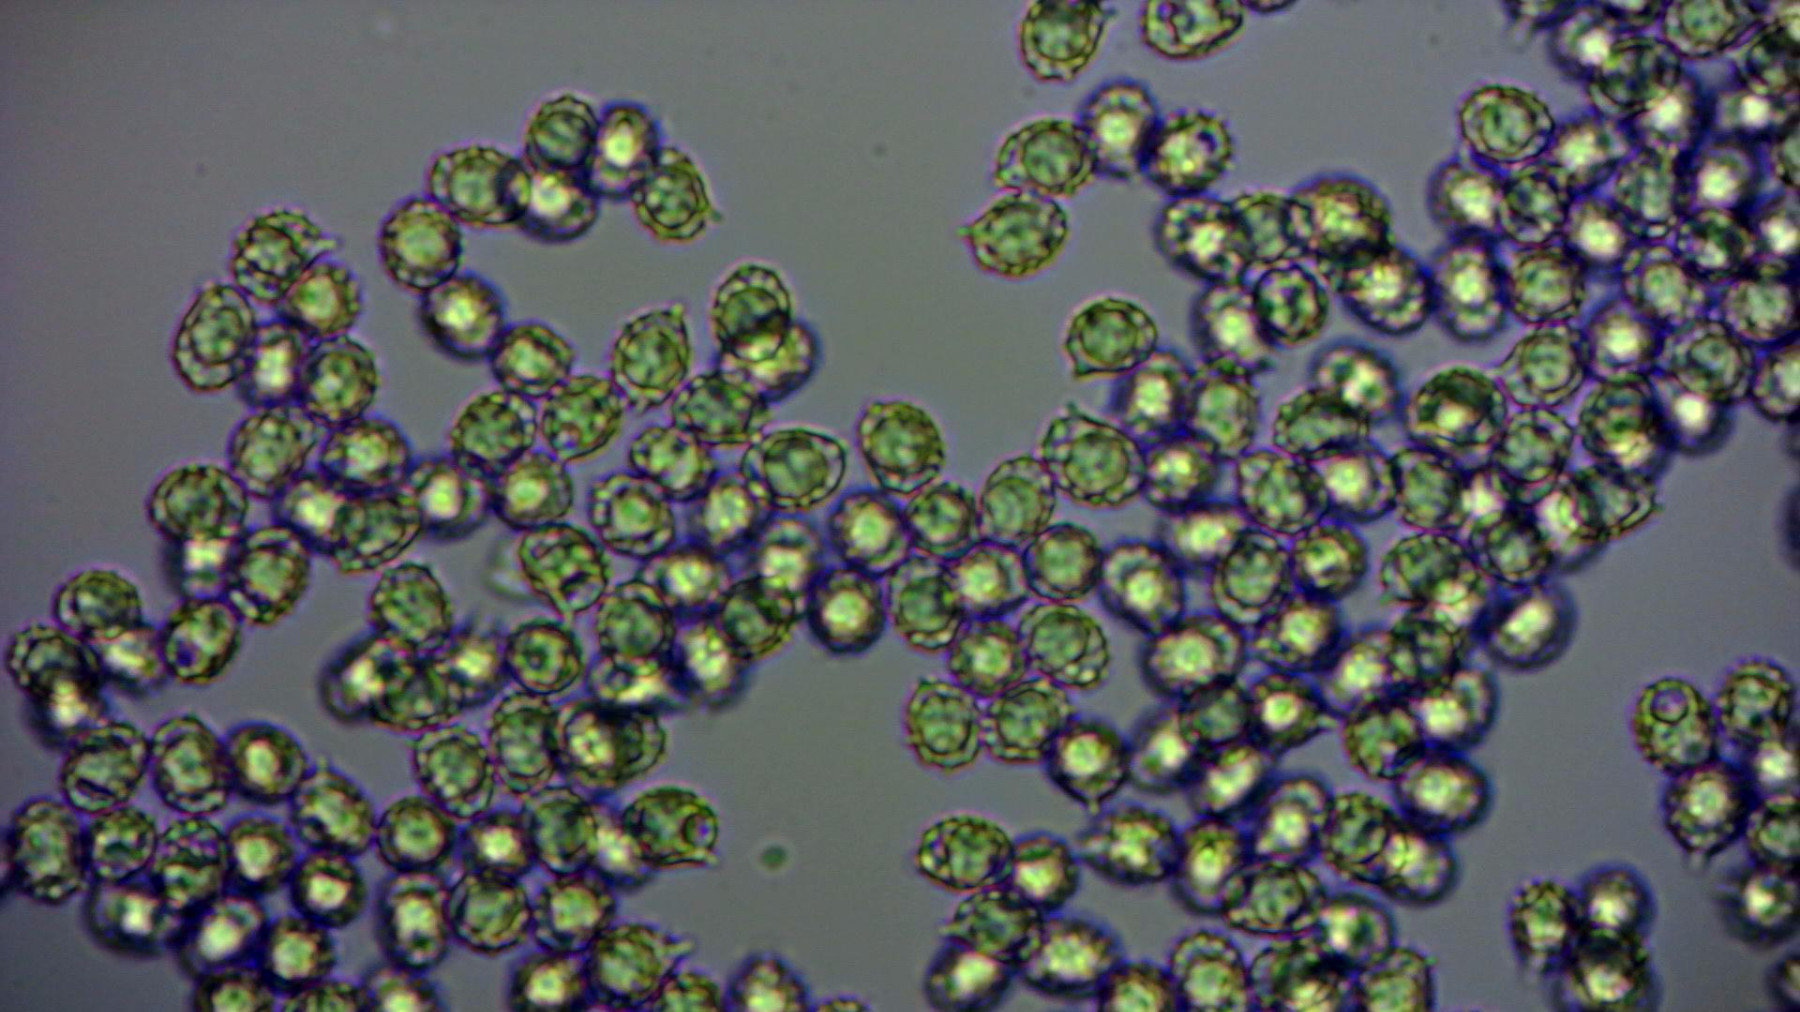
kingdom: Fungi
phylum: Basidiomycota
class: Agaricomycetes
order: Russulales
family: Russulaceae
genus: Russula
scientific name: Russula
